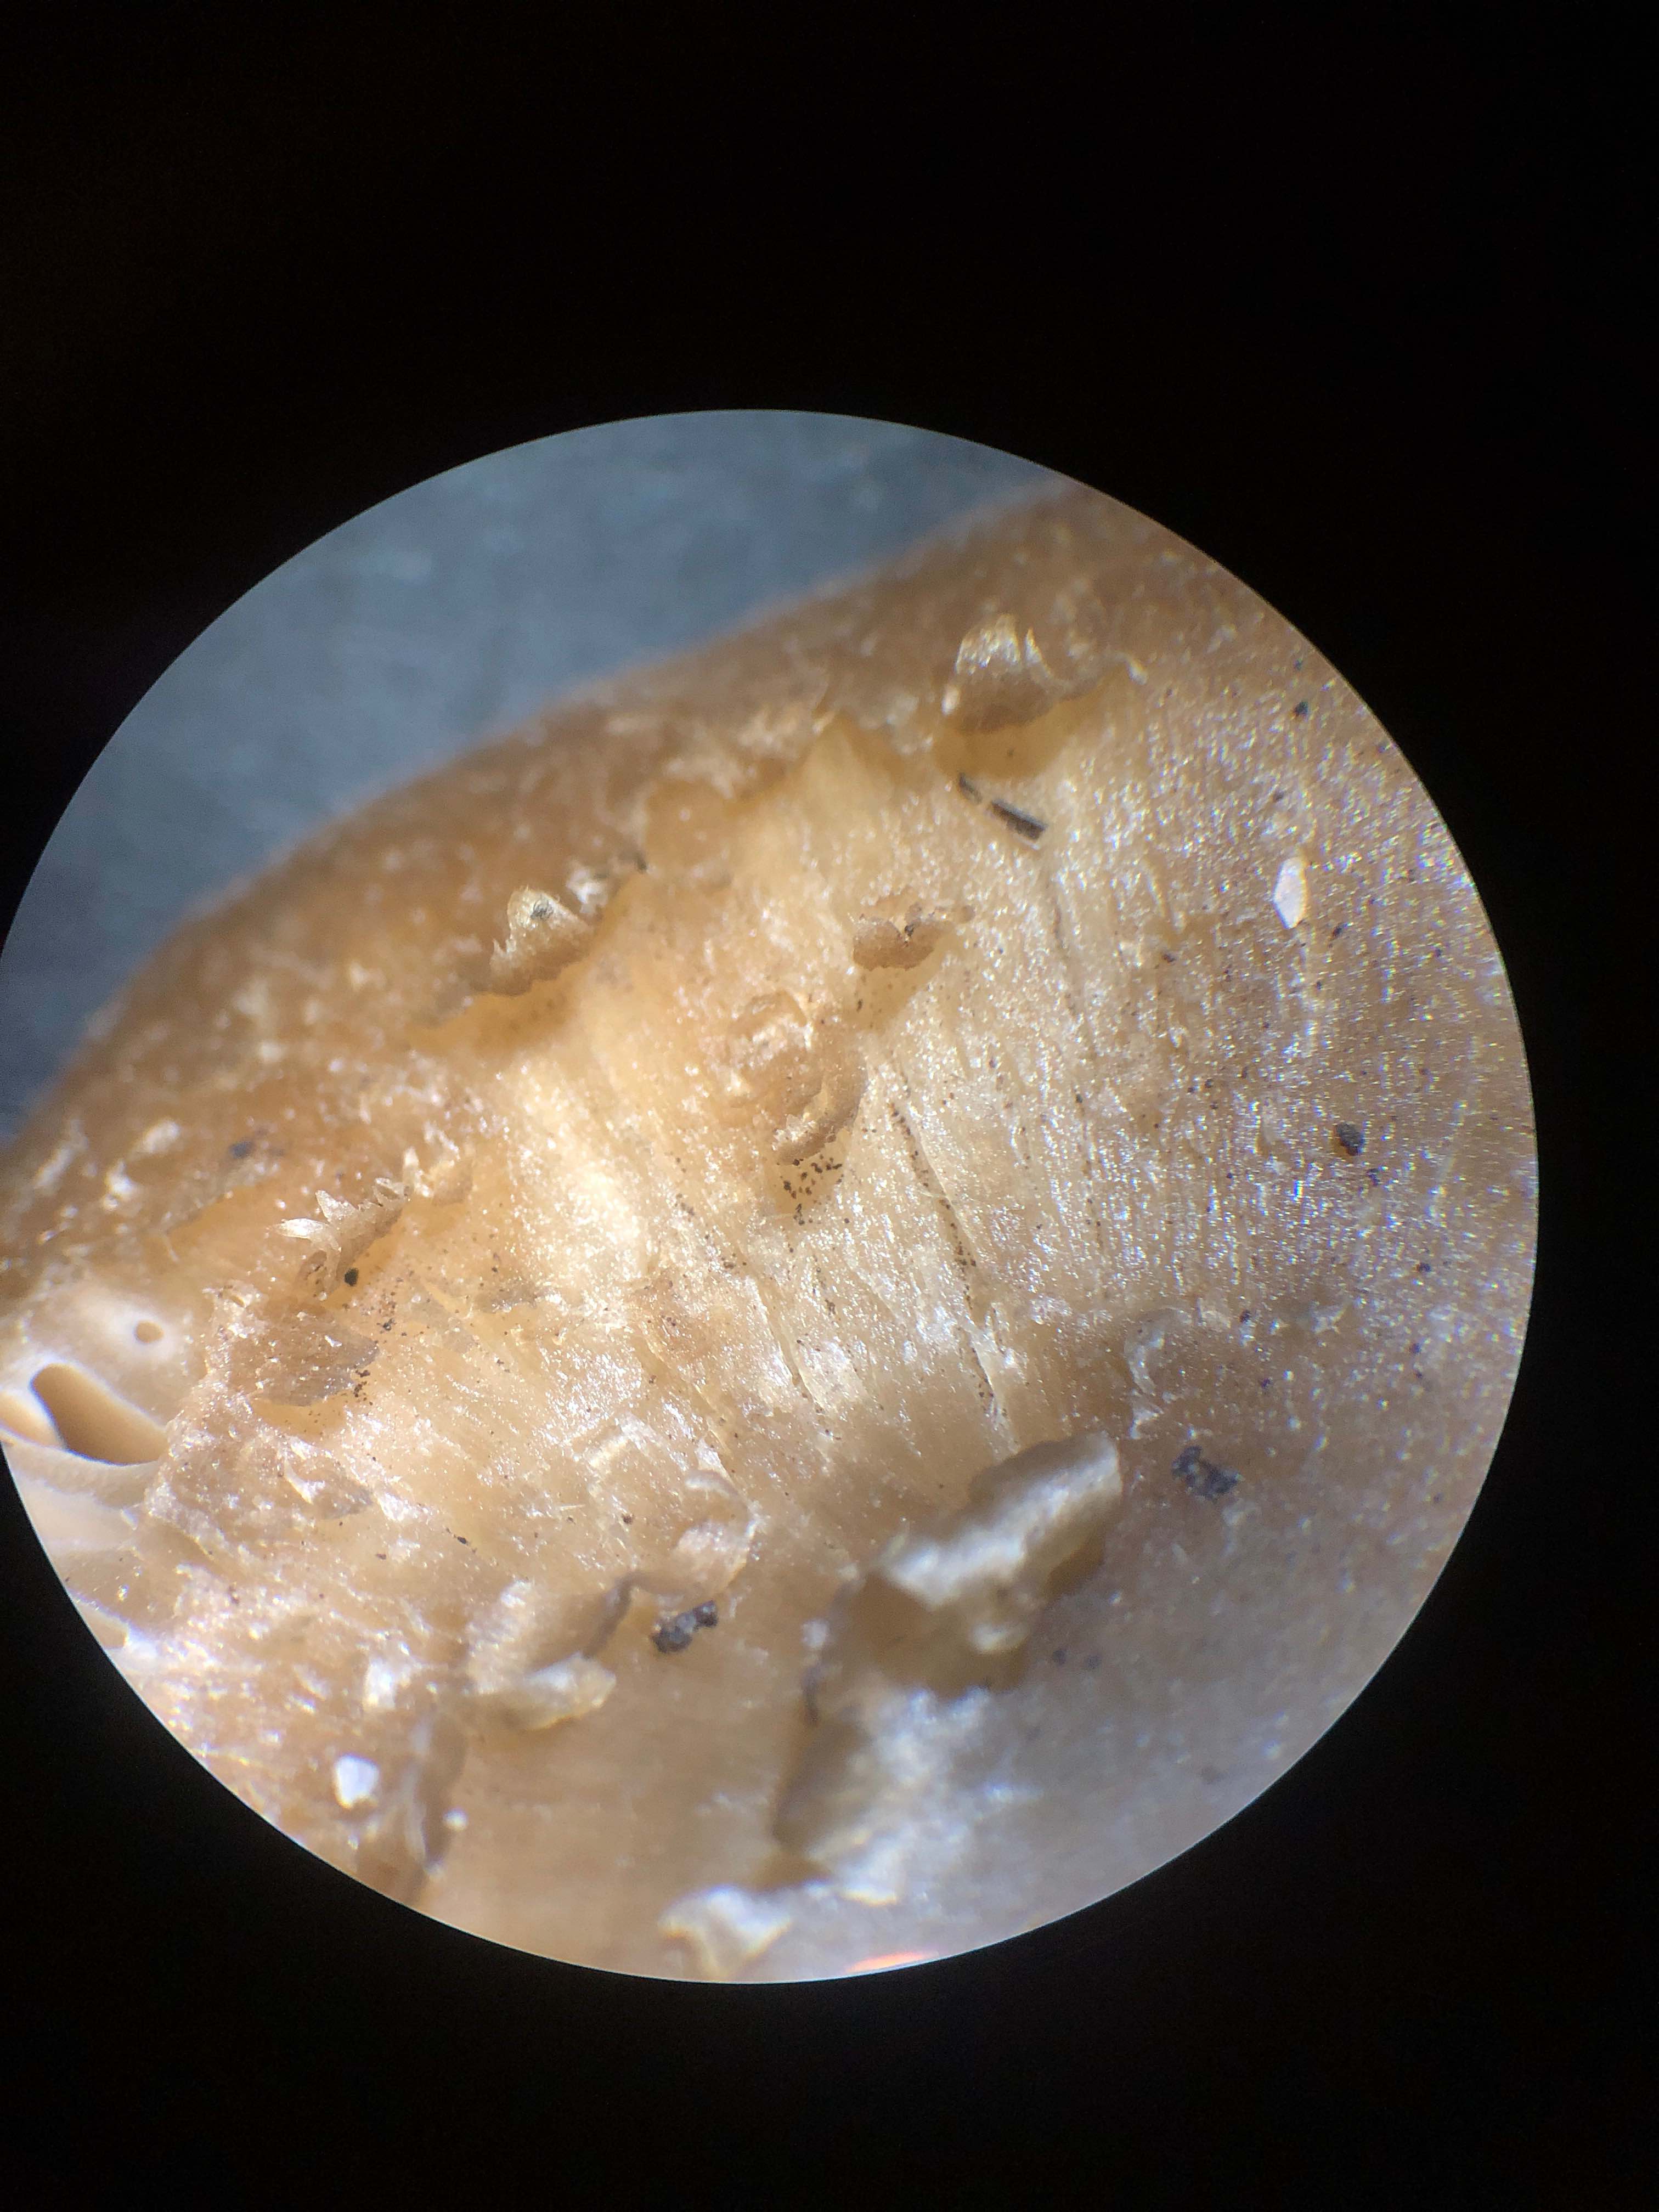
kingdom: Fungi
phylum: Basidiomycota
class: Agaricomycetes
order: Agaricales
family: Entolomataceae
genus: Entoloma
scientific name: Entoloma
